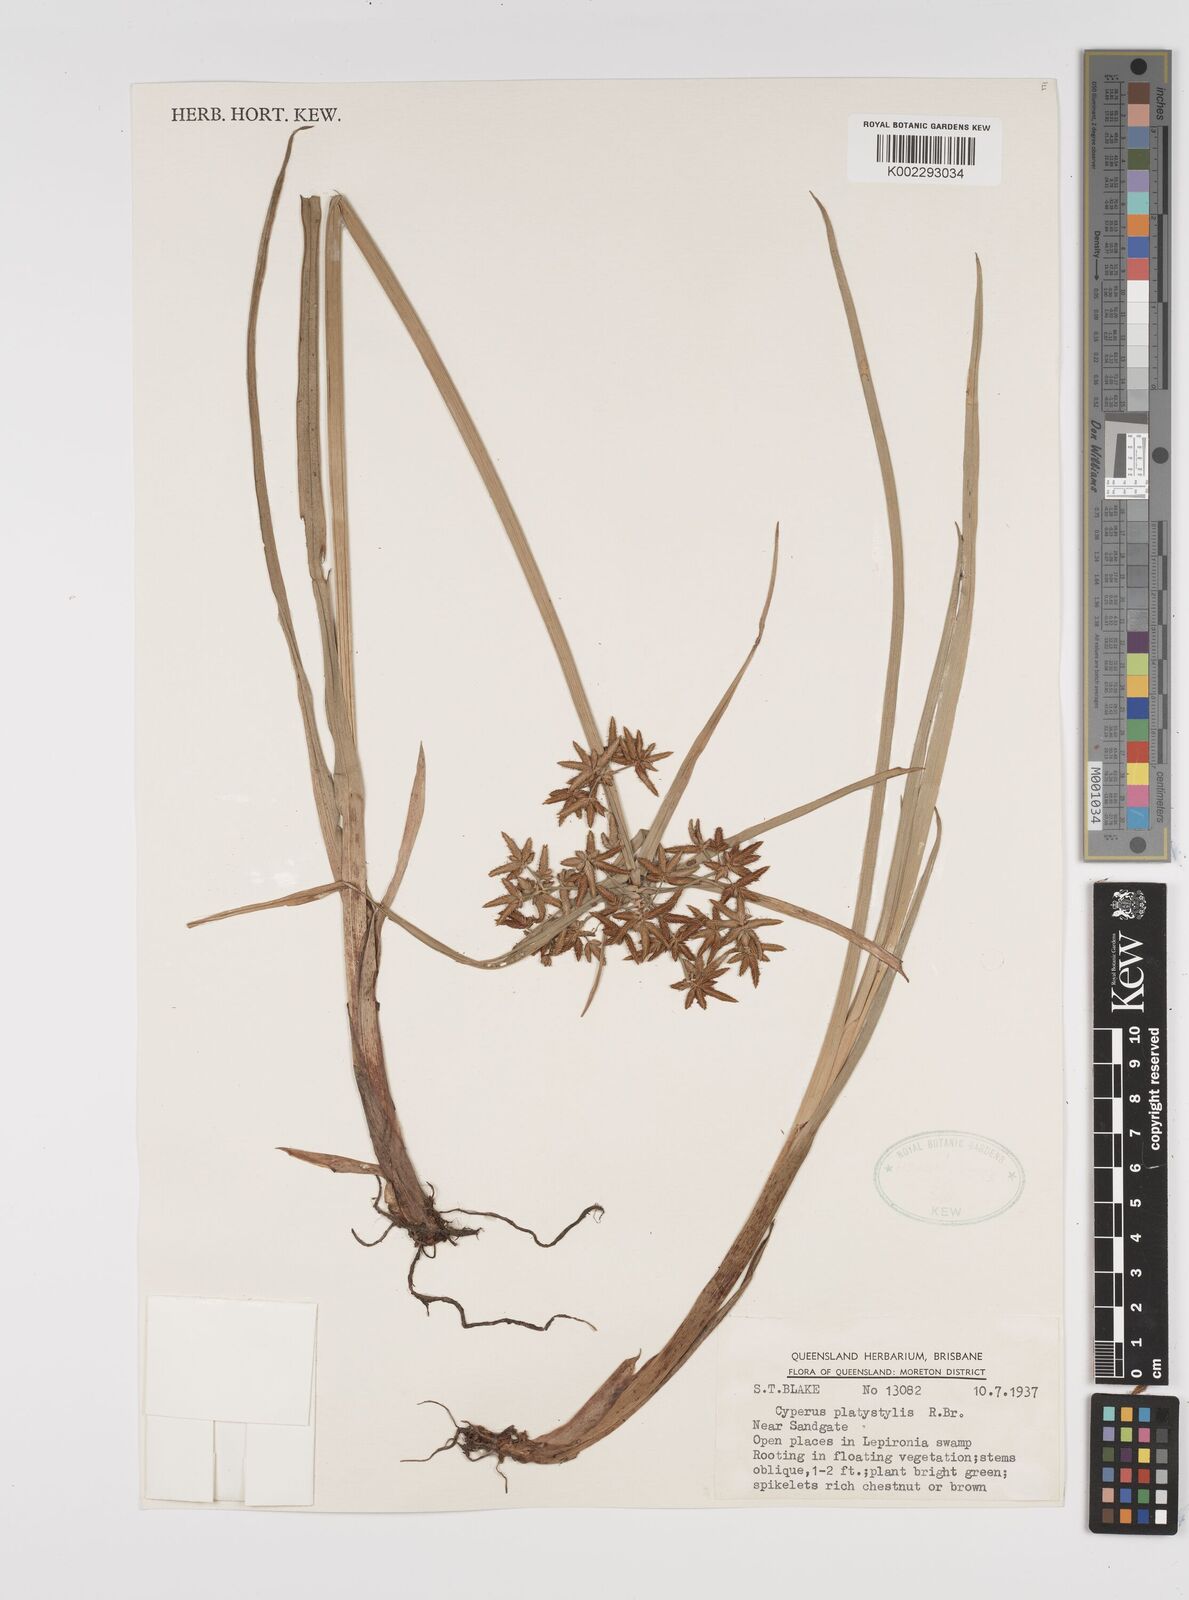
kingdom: Plantae
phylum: Tracheophyta
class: Liliopsida
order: Poales
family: Cyperaceae
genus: Cyperus
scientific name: Cyperus platystylis
